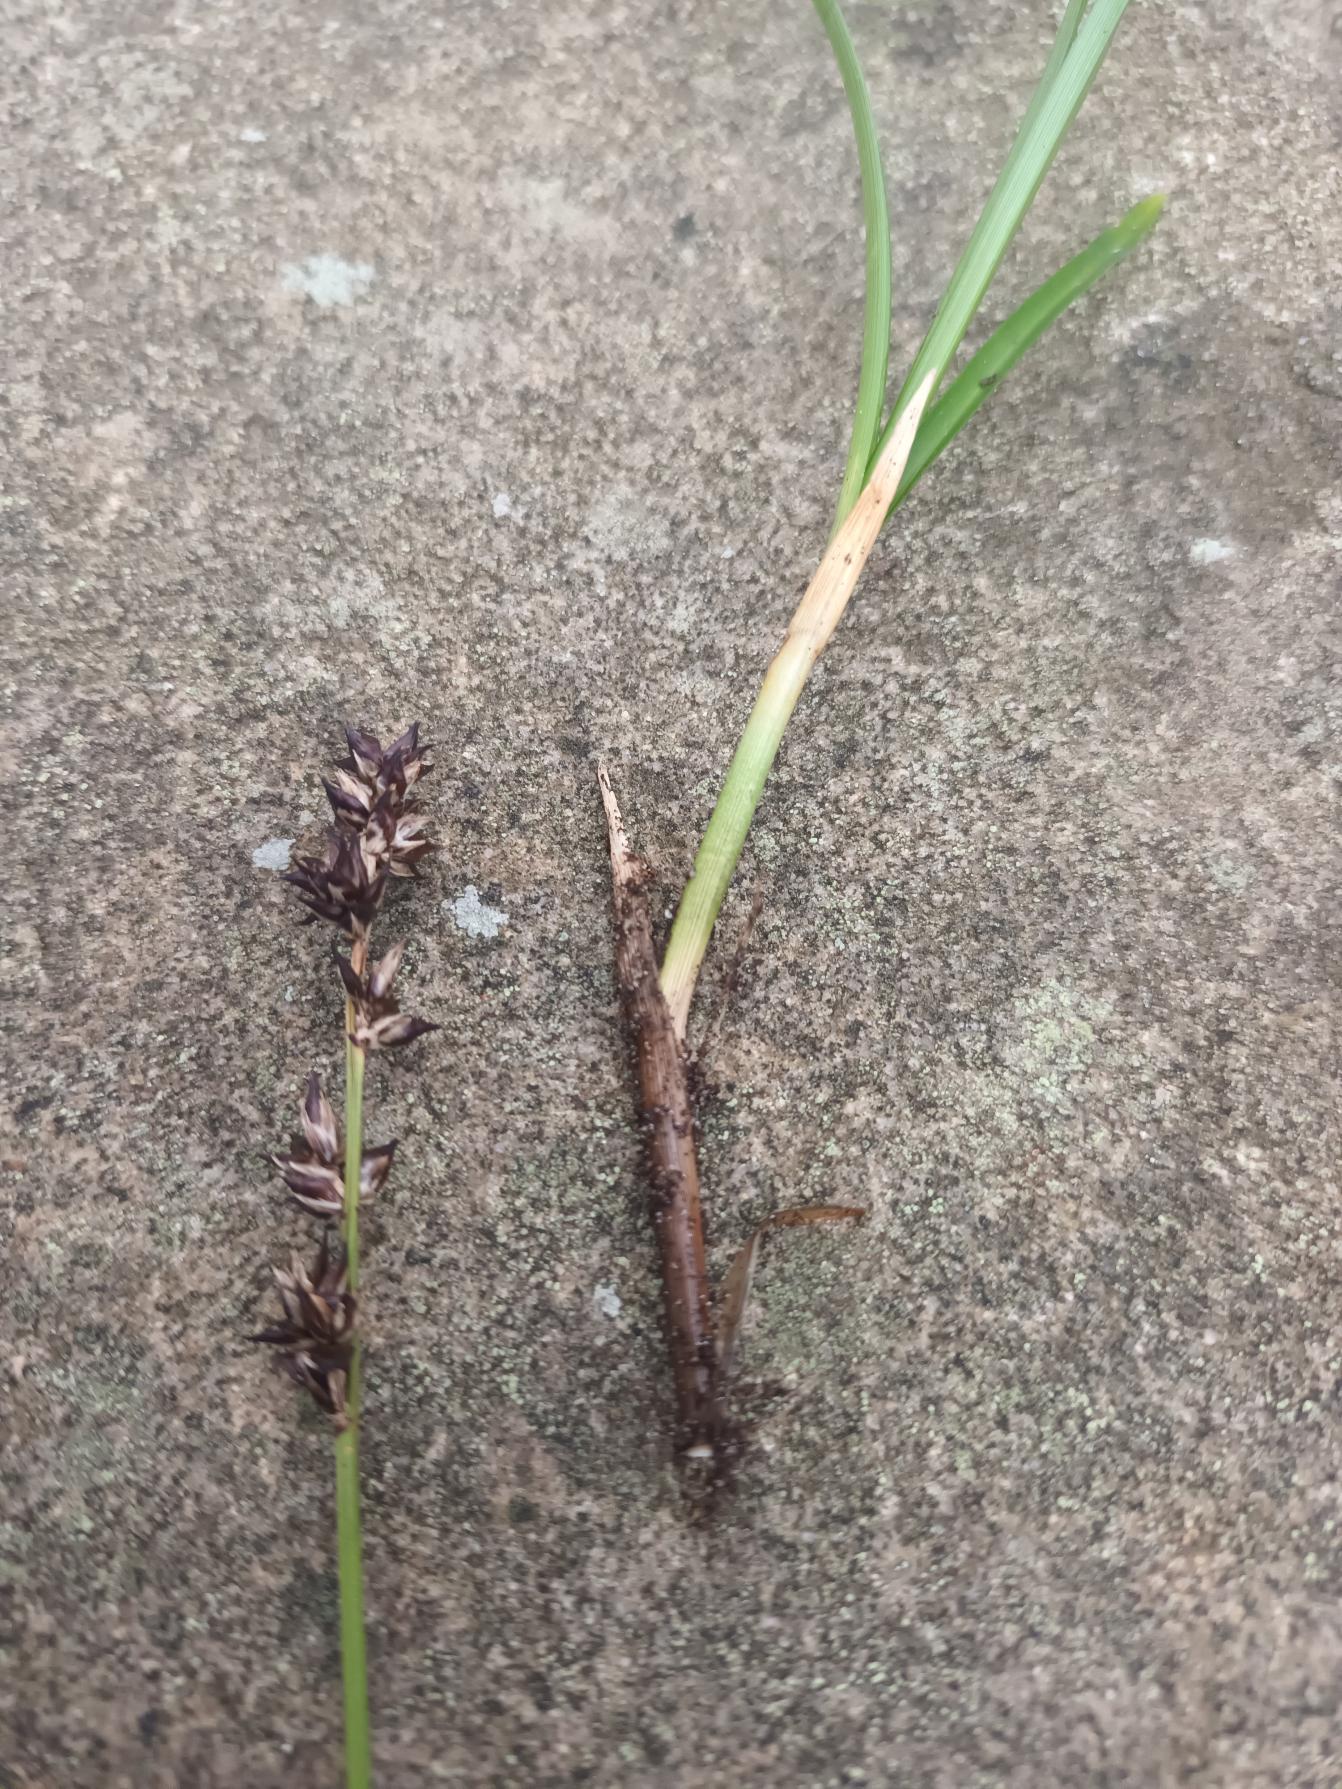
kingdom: Plantae
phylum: Tracheophyta
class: Liliopsida
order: Poales
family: Cyperaceae
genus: Carex
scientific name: Carex
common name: Starslægten
